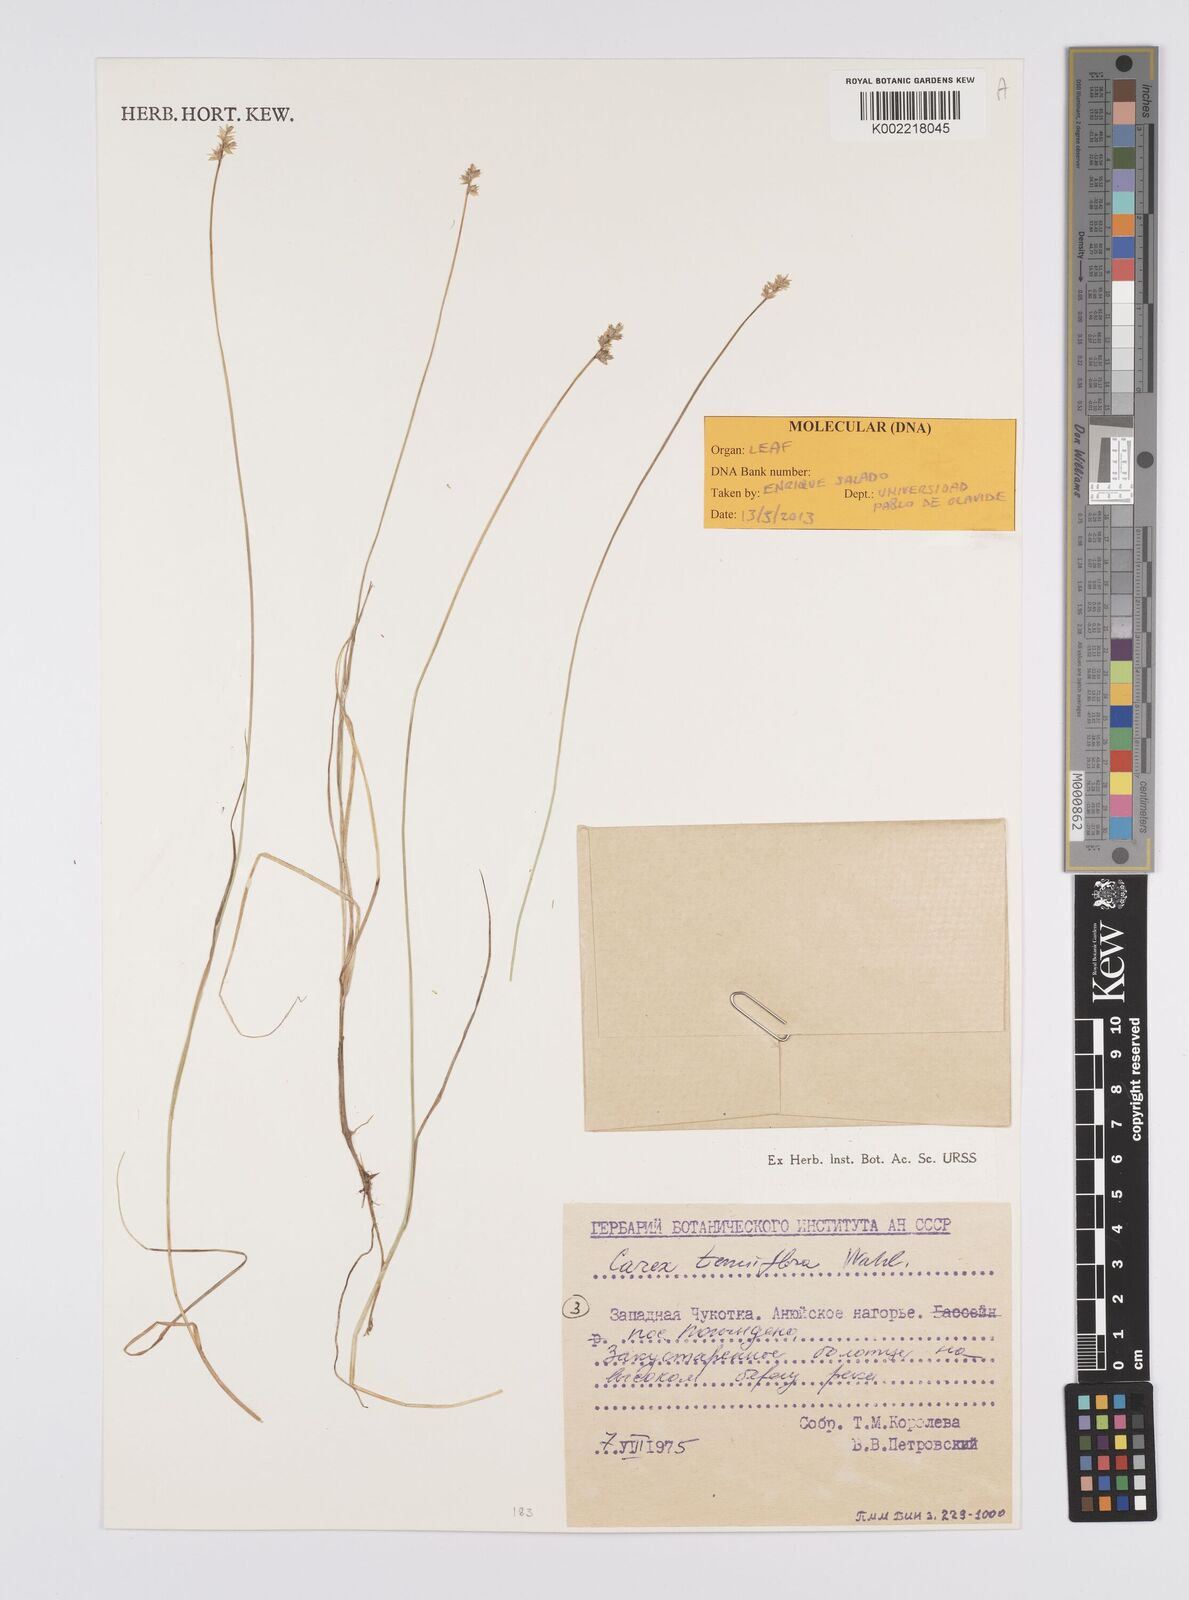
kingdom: Plantae
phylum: Tracheophyta
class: Liliopsida
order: Poales
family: Cyperaceae
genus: Carex
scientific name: Carex tenuiflora
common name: Sparse-flowered sedge
